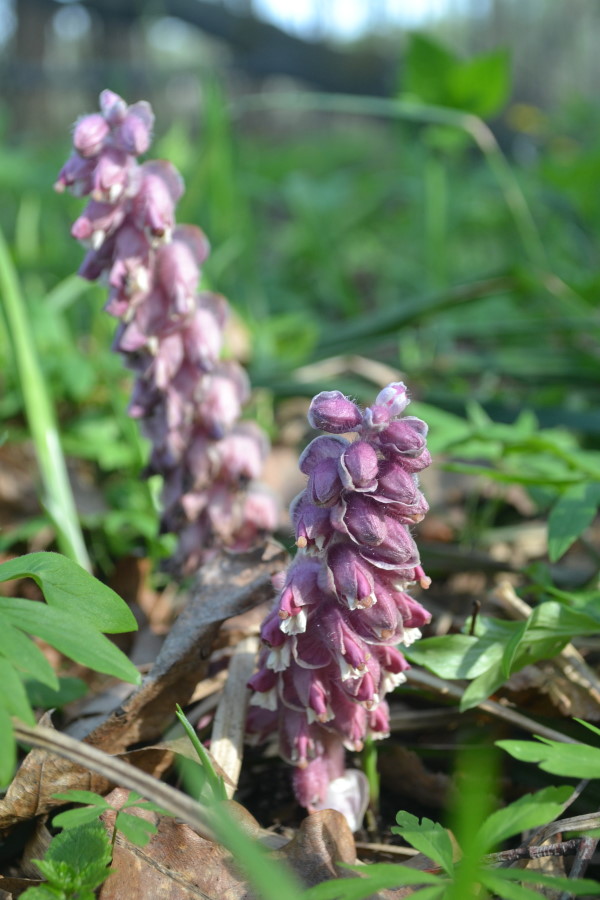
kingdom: Plantae
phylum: Tracheophyta
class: Magnoliopsida
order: Lamiales
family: Orobanchaceae
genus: Lathraea
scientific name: Lathraea squamaria
